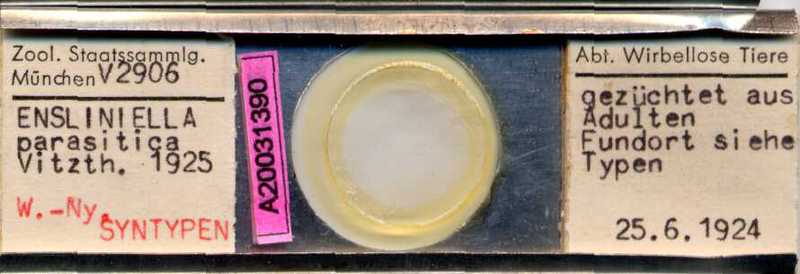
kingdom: Animalia
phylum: Arthropoda
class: Arachnida
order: Sarcoptiformes
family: Winterschmidtiidae
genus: Ensliniella
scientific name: Ensliniella parasitica
